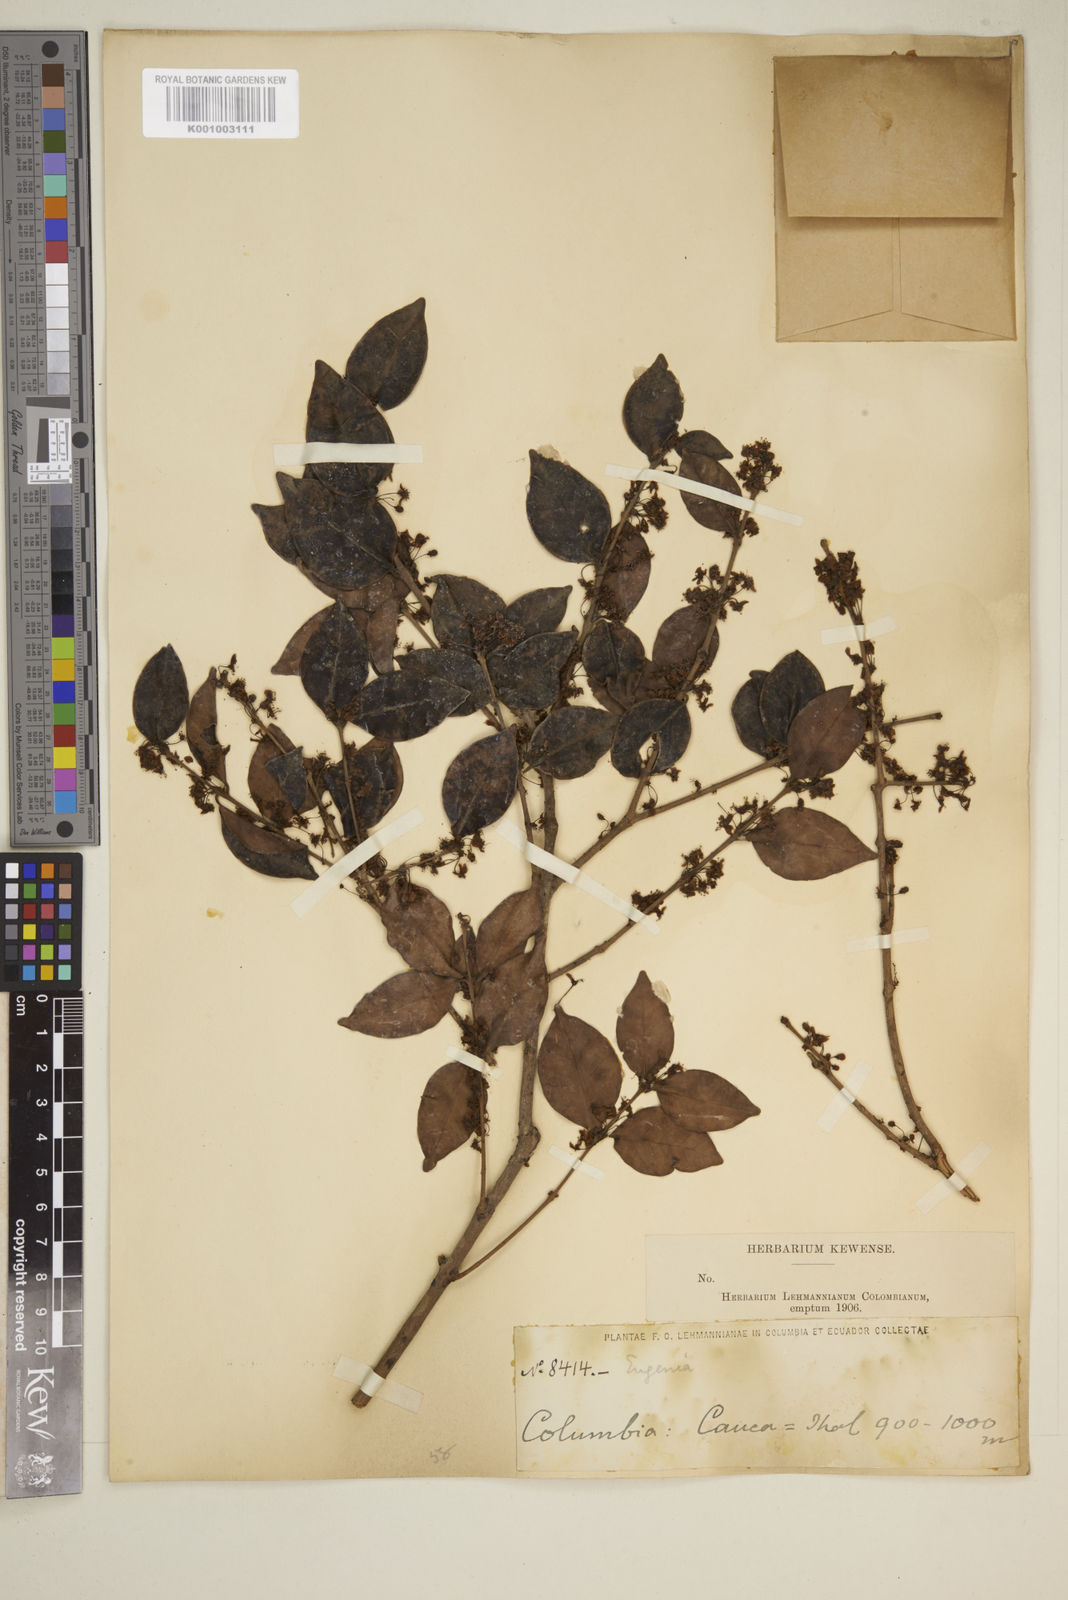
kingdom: Plantae
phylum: Tracheophyta
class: Magnoliopsida
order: Myrtales
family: Myrtaceae
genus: Eugenia
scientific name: Eugenia
